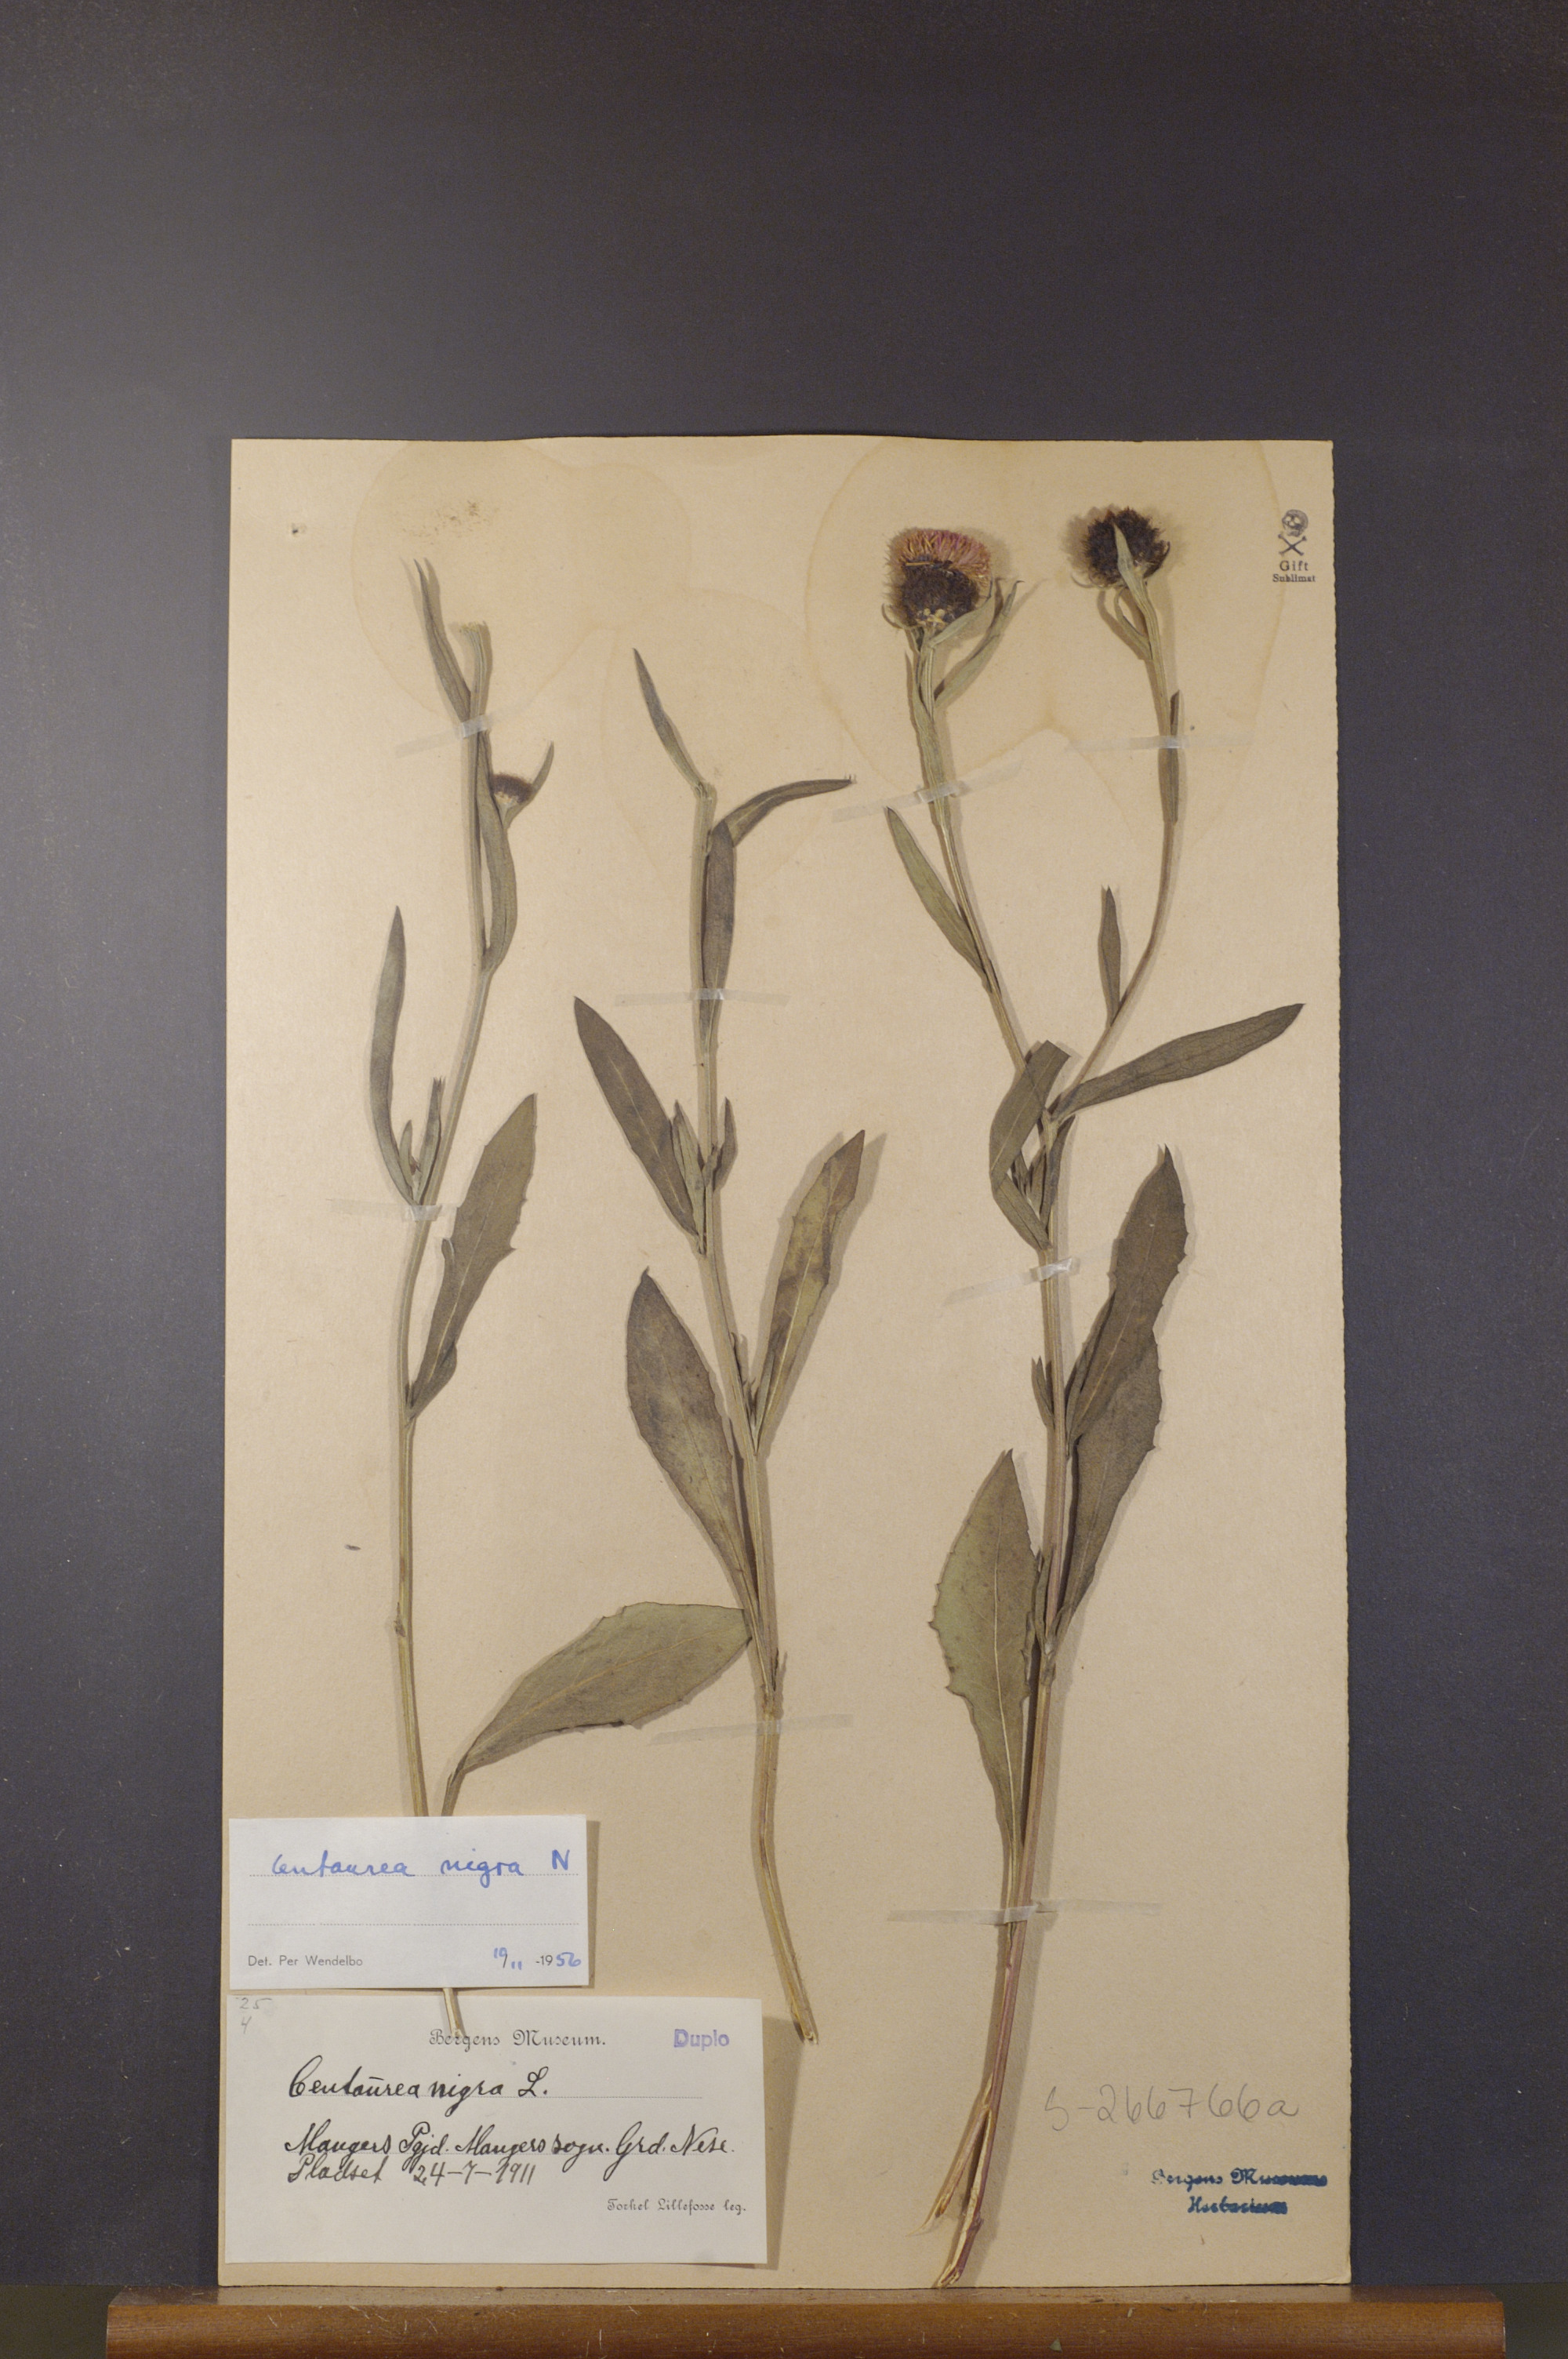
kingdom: Plantae
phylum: Tracheophyta
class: Magnoliopsida
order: Asterales
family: Asteraceae
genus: Centaurea
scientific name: Centaurea nigra
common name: Lesser knapweed
